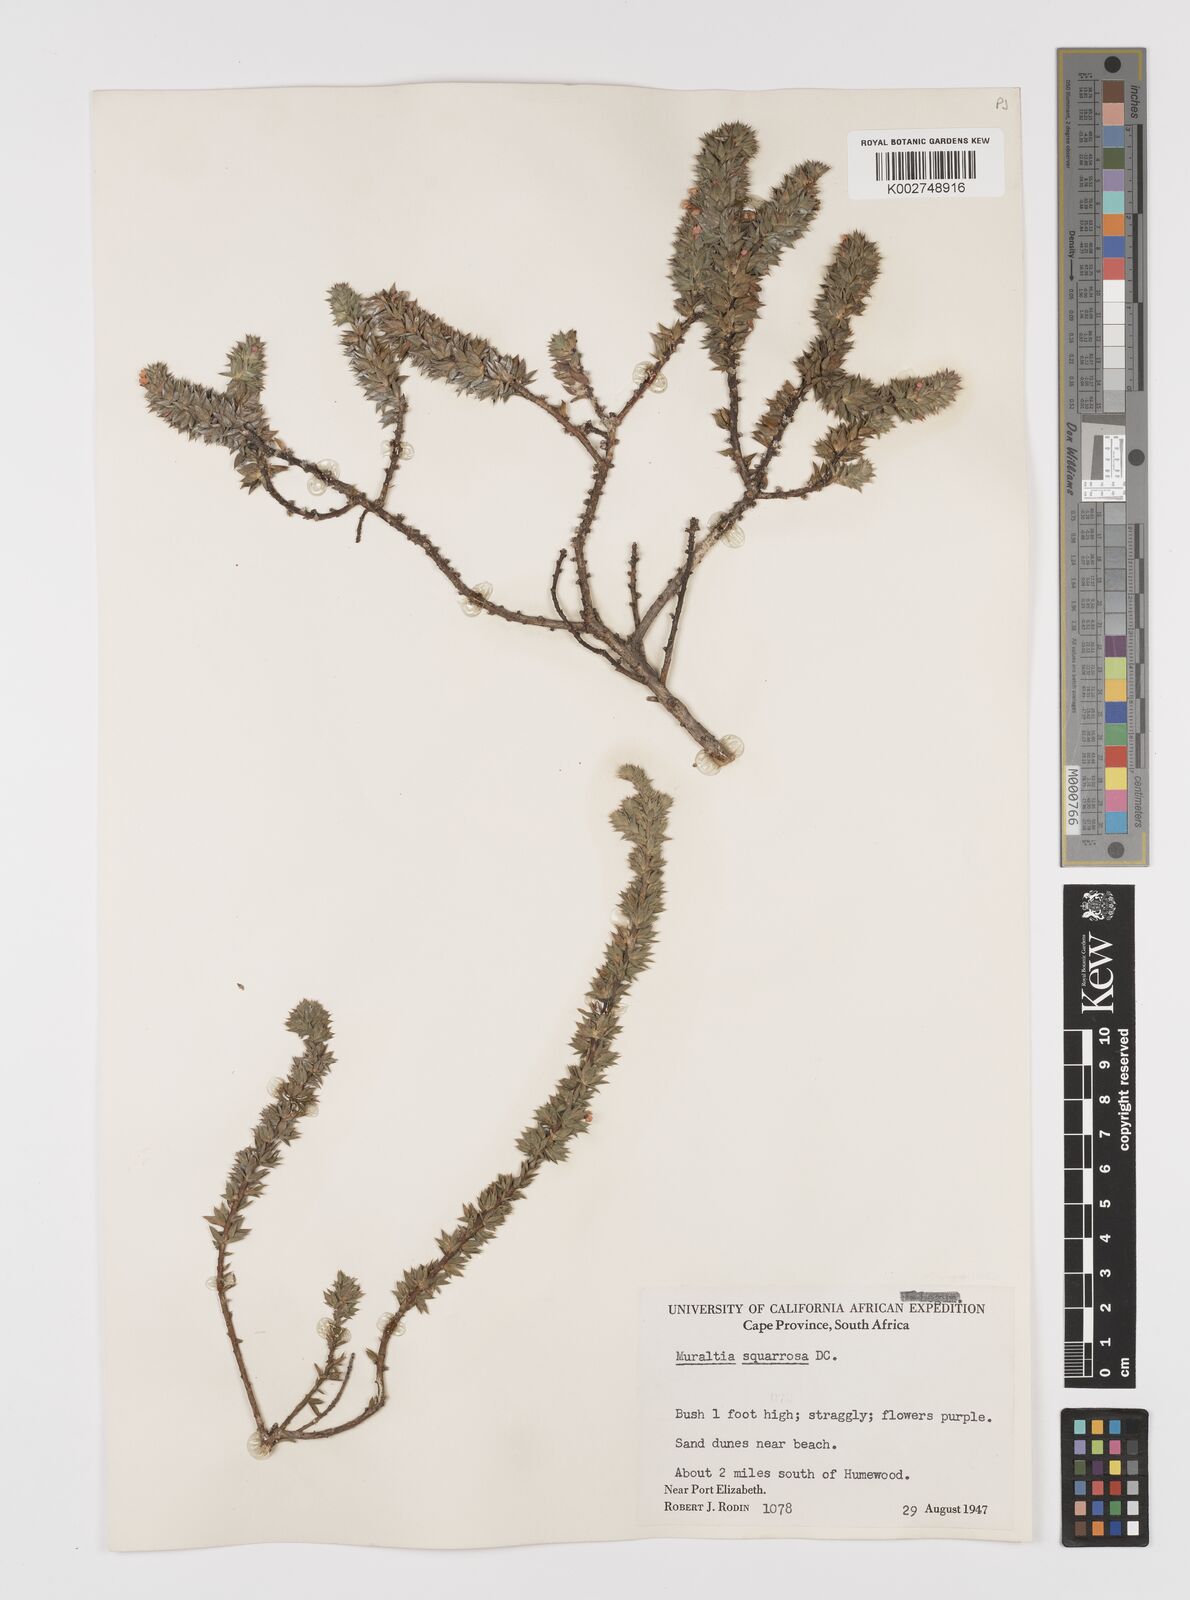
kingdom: Plantae
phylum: Tracheophyta
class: Magnoliopsida
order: Fabales
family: Polygalaceae
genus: Muraltia
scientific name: Muraltia squarrosa
